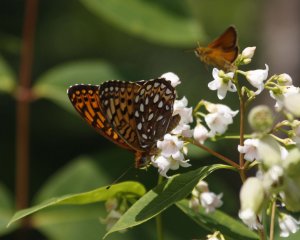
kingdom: Animalia
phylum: Arthropoda
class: Insecta
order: Lepidoptera
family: Nymphalidae
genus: Speyeria
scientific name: Speyeria atlantis
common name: Atlantis Fritillary
